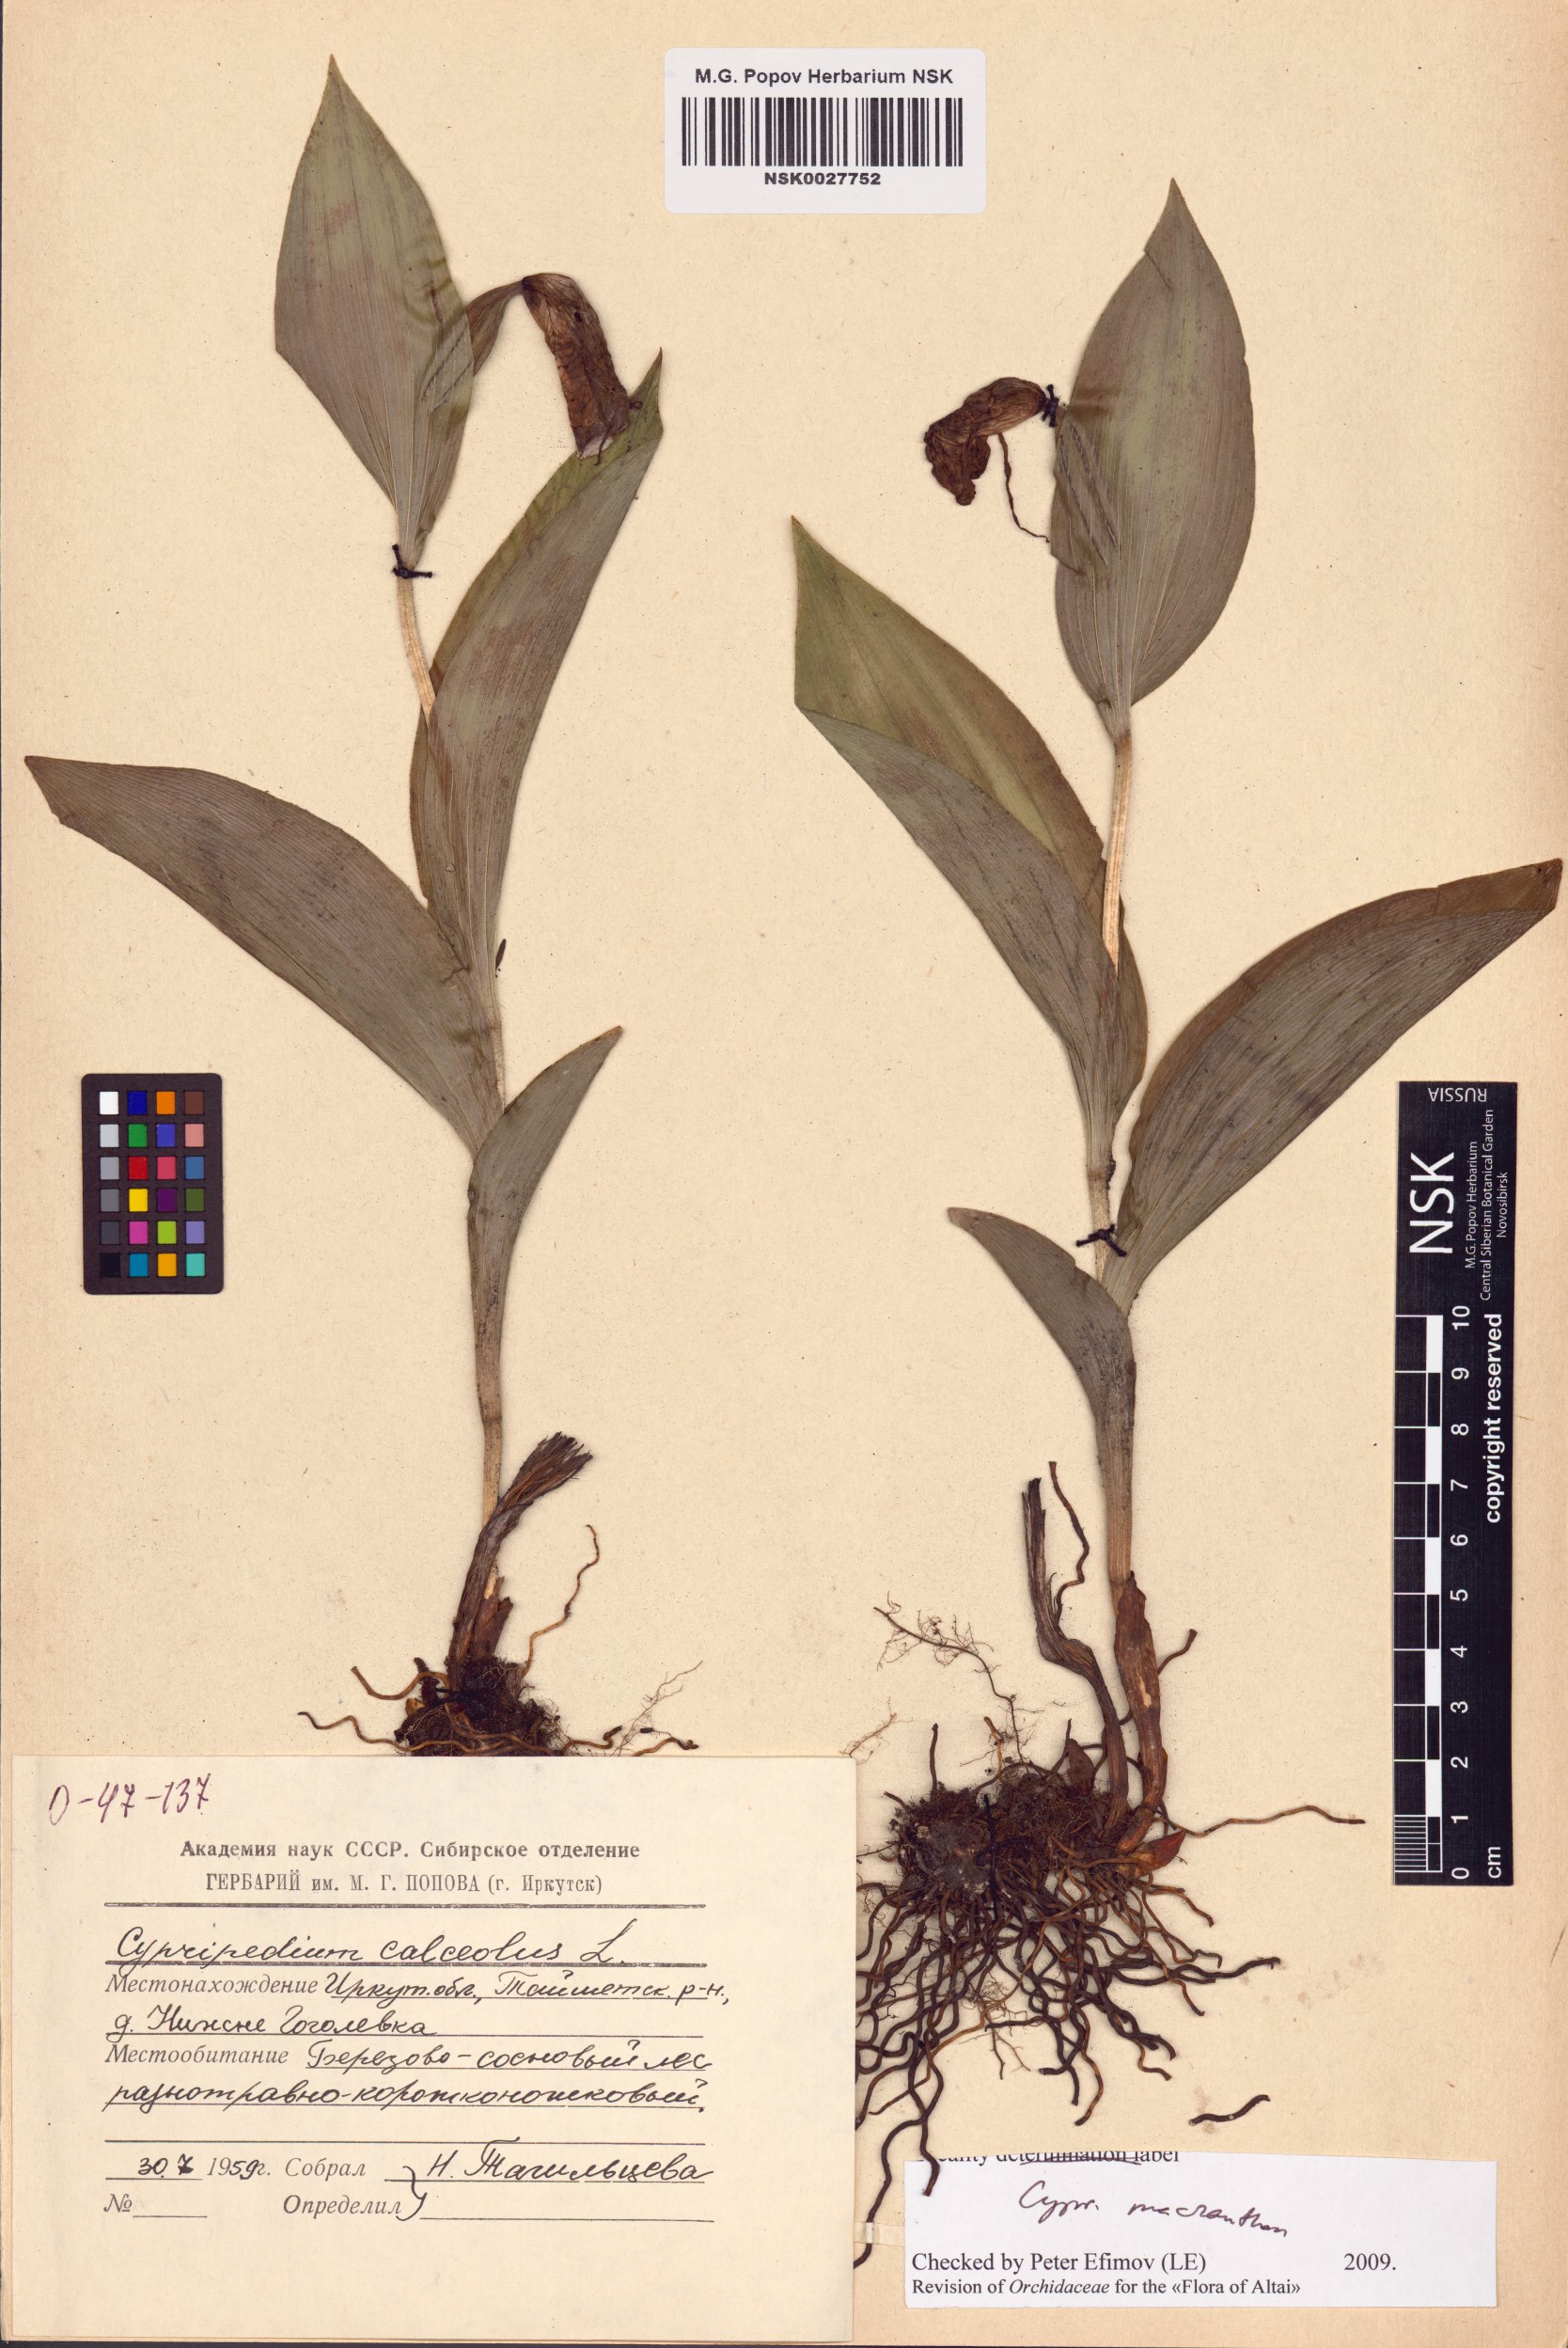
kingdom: Plantae
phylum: Tracheophyta
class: Liliopsida
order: Asparagales
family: Orchidaceae
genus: Cypripedium
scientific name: Cypripedium macranthos
